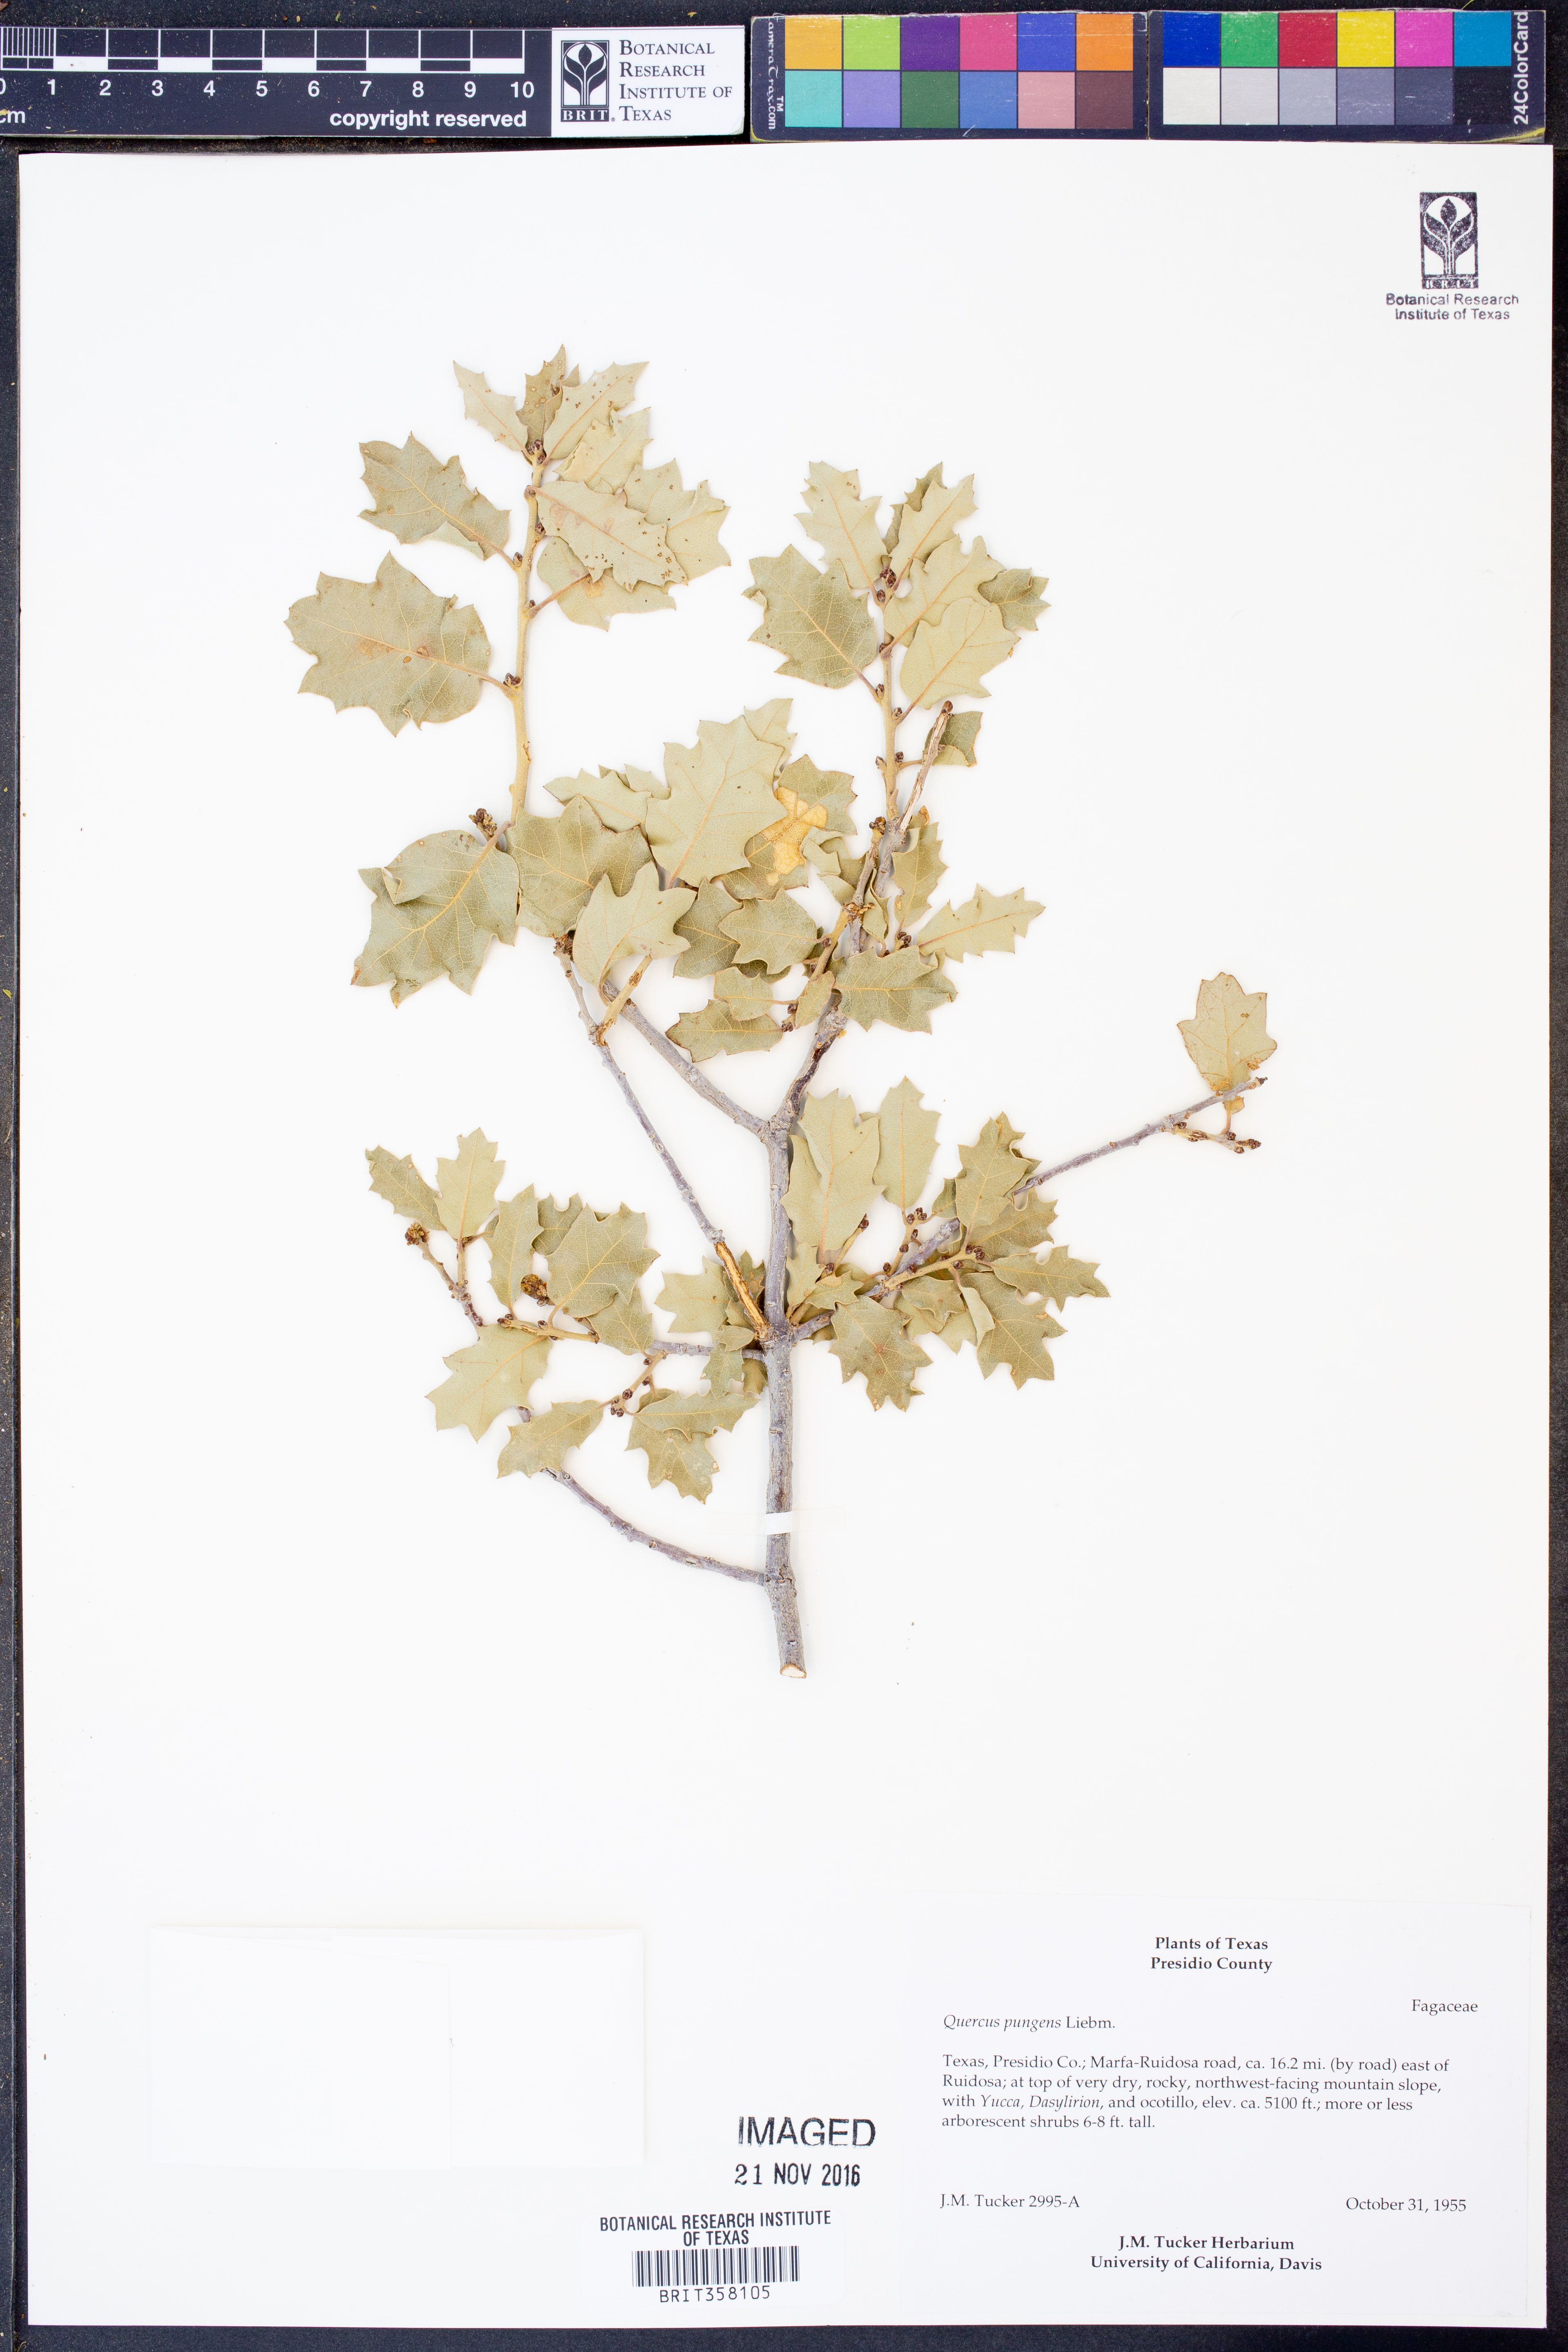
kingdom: Plantae
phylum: Tracheophyta
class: Magnoliopsida
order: Fagales
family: Fagaceae
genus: Quercus
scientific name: Quercus pungens
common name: Pungent oak
